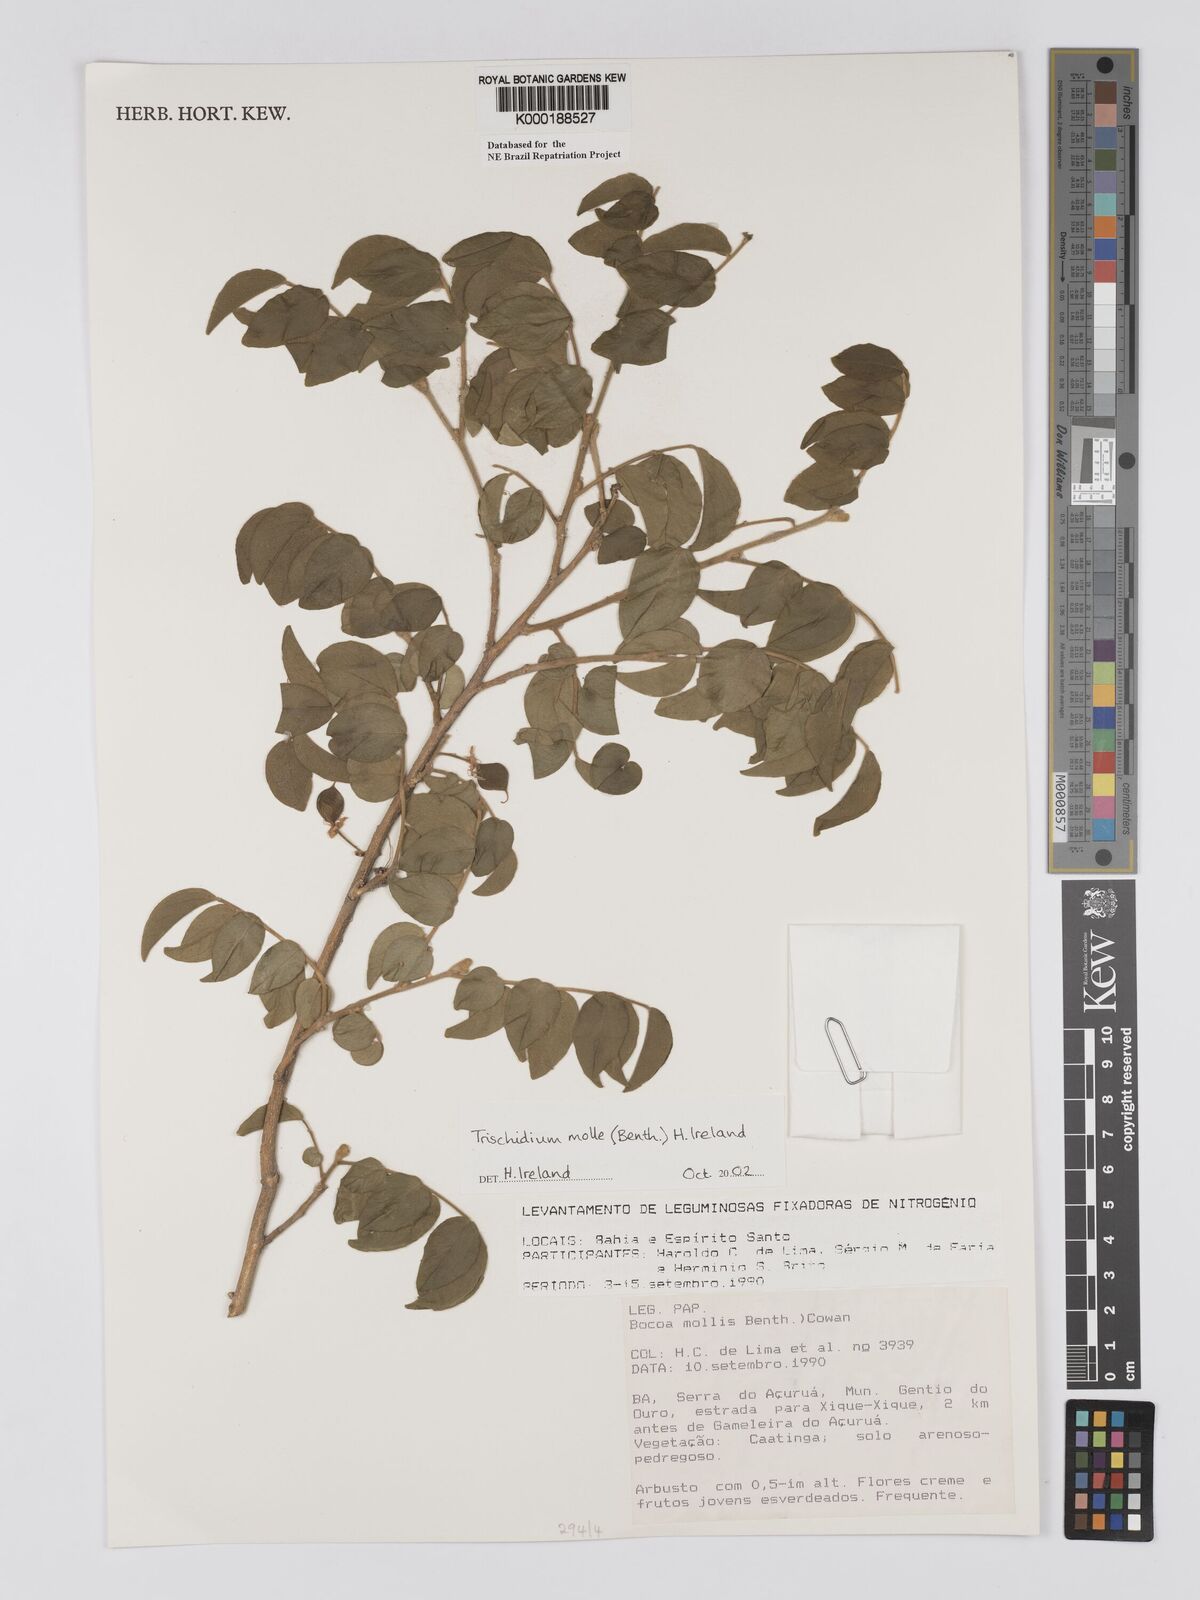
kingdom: Plantae
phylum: Tracheophyta
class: Magnoliopsida
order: Fabales
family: Fabaceae
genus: Trischidium
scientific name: Trischidium
